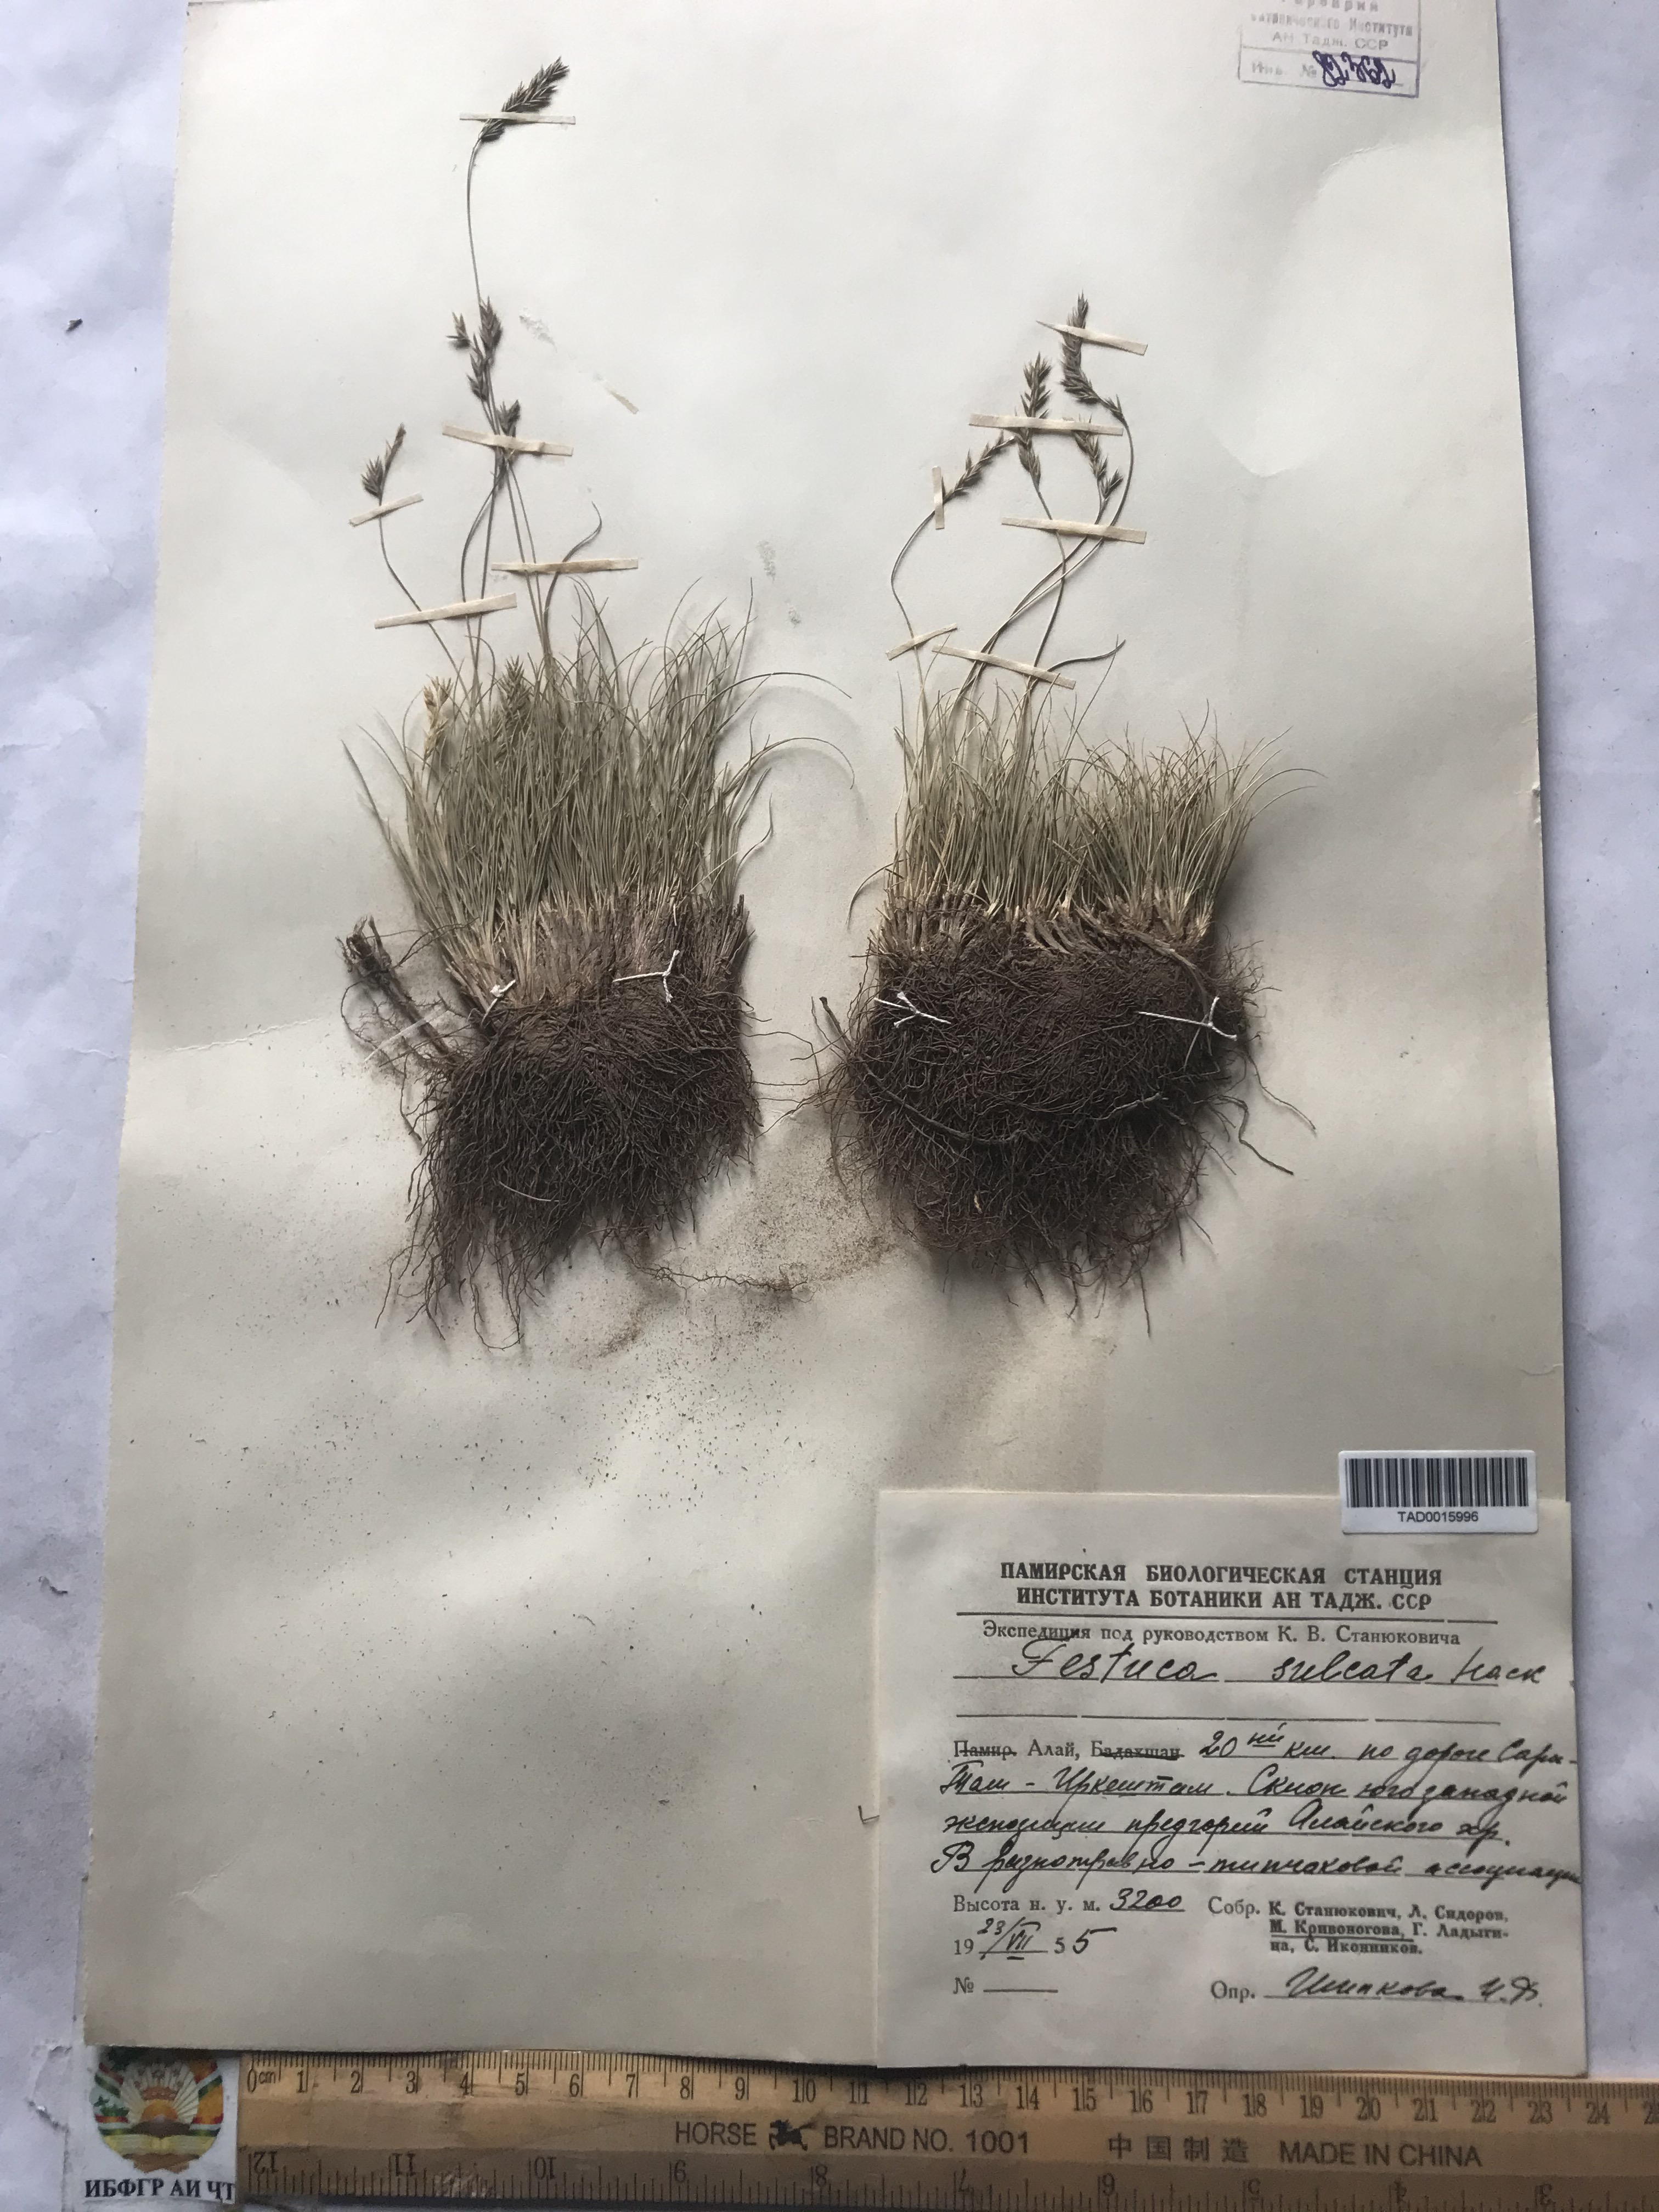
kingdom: Plantae
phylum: Tracheophyta
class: Liliopsida
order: Poales
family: Poaceae
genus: Festuca
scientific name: Festuca sulcata
